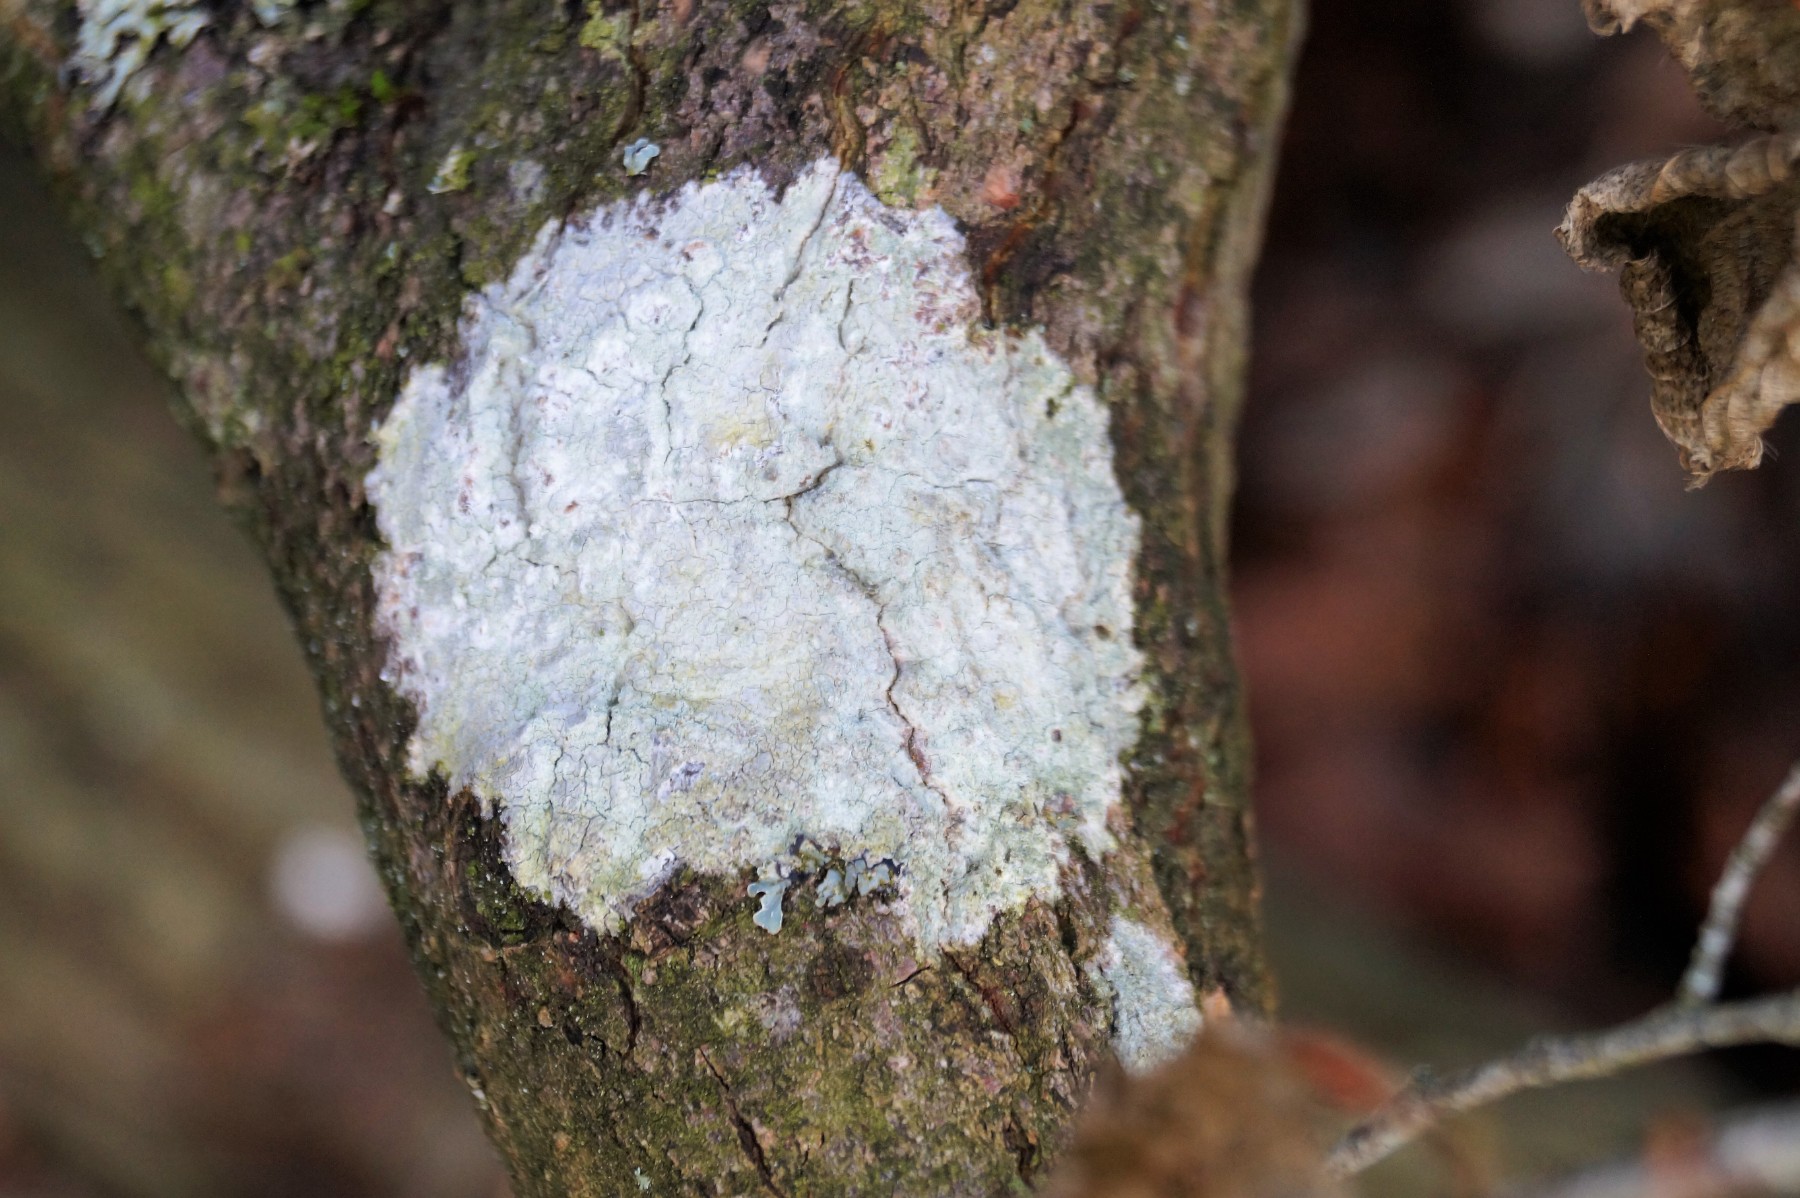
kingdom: Fungi
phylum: Ascomycota
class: Lecanoromycetes
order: Ostropales
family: Phlyctidaceae
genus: Phlyctis
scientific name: Phlyctis argena
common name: almindelig sølvlav
